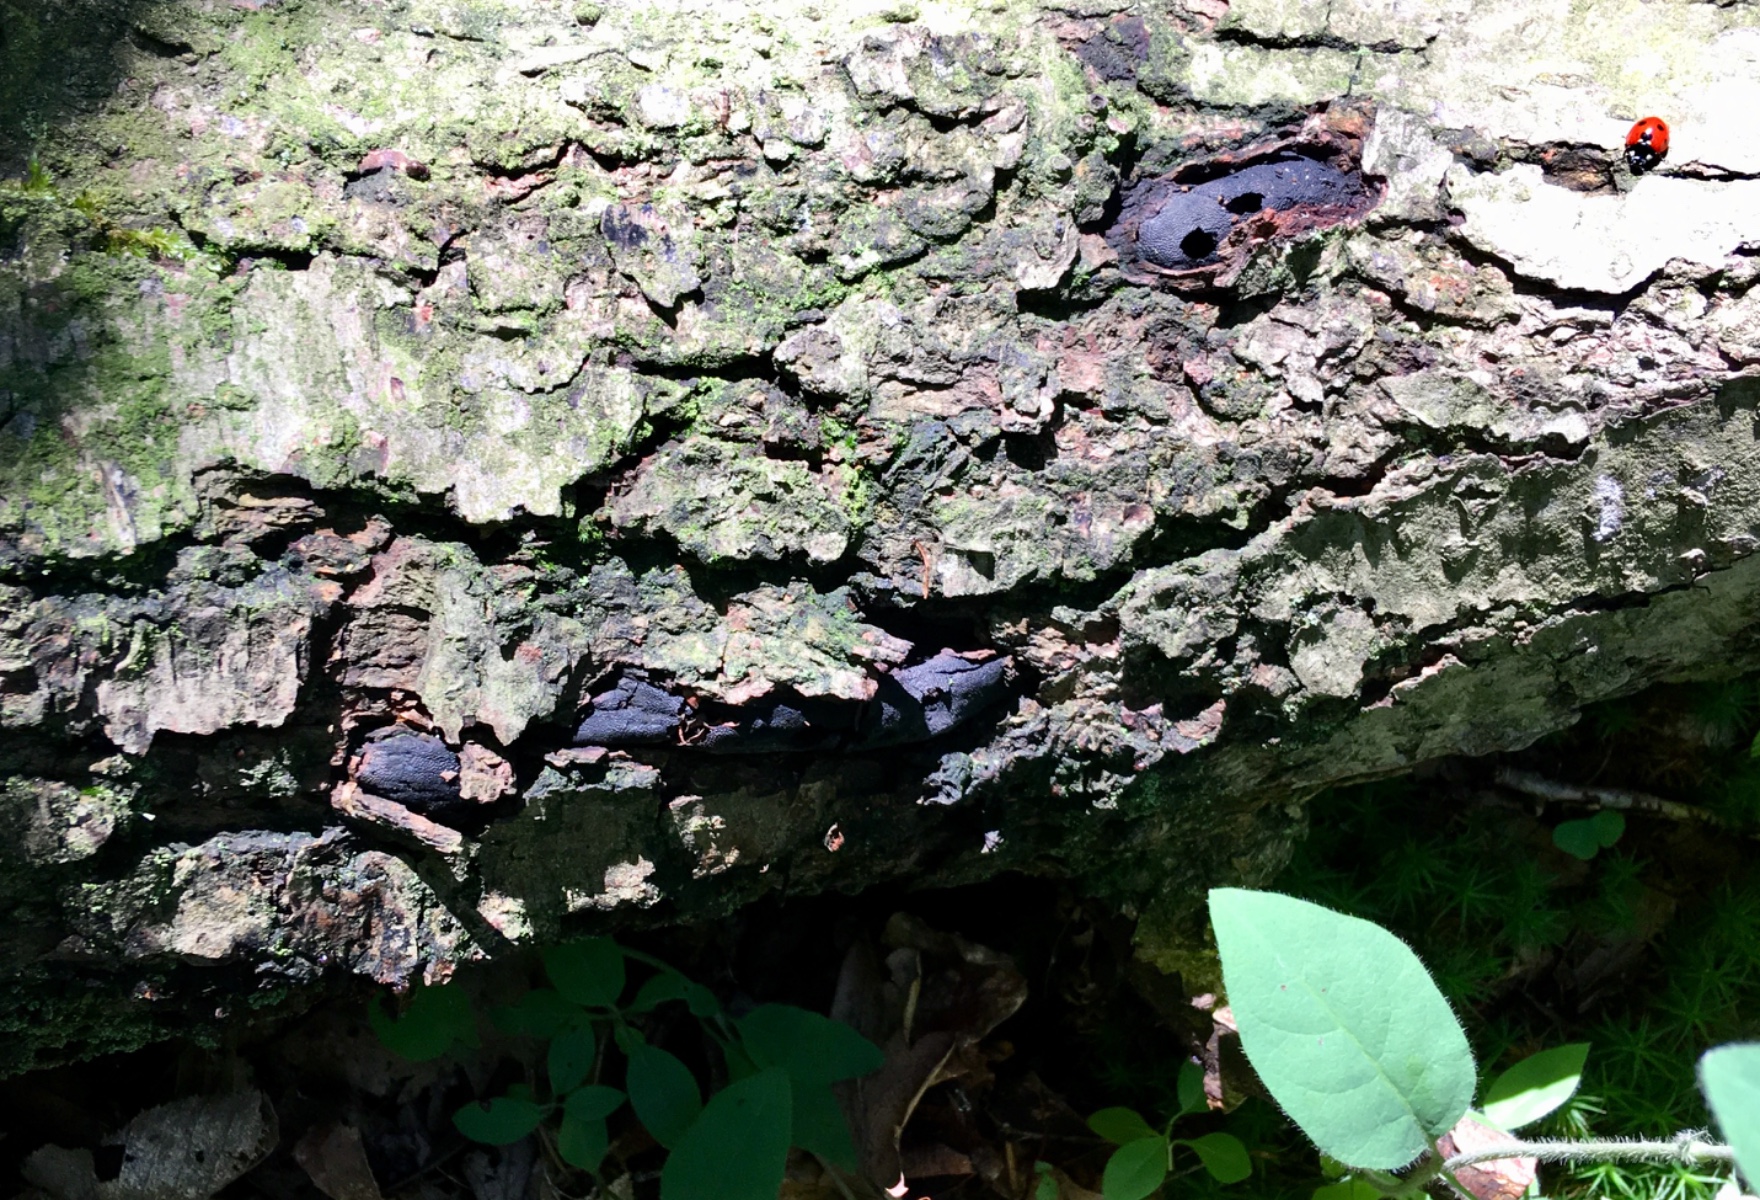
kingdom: Fungi
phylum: Ascomycota
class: Sordariomycetes
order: Boliniales
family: Boliniaceae
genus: Camarops
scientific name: Camarops polysperma
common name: elle-kulsnegl
